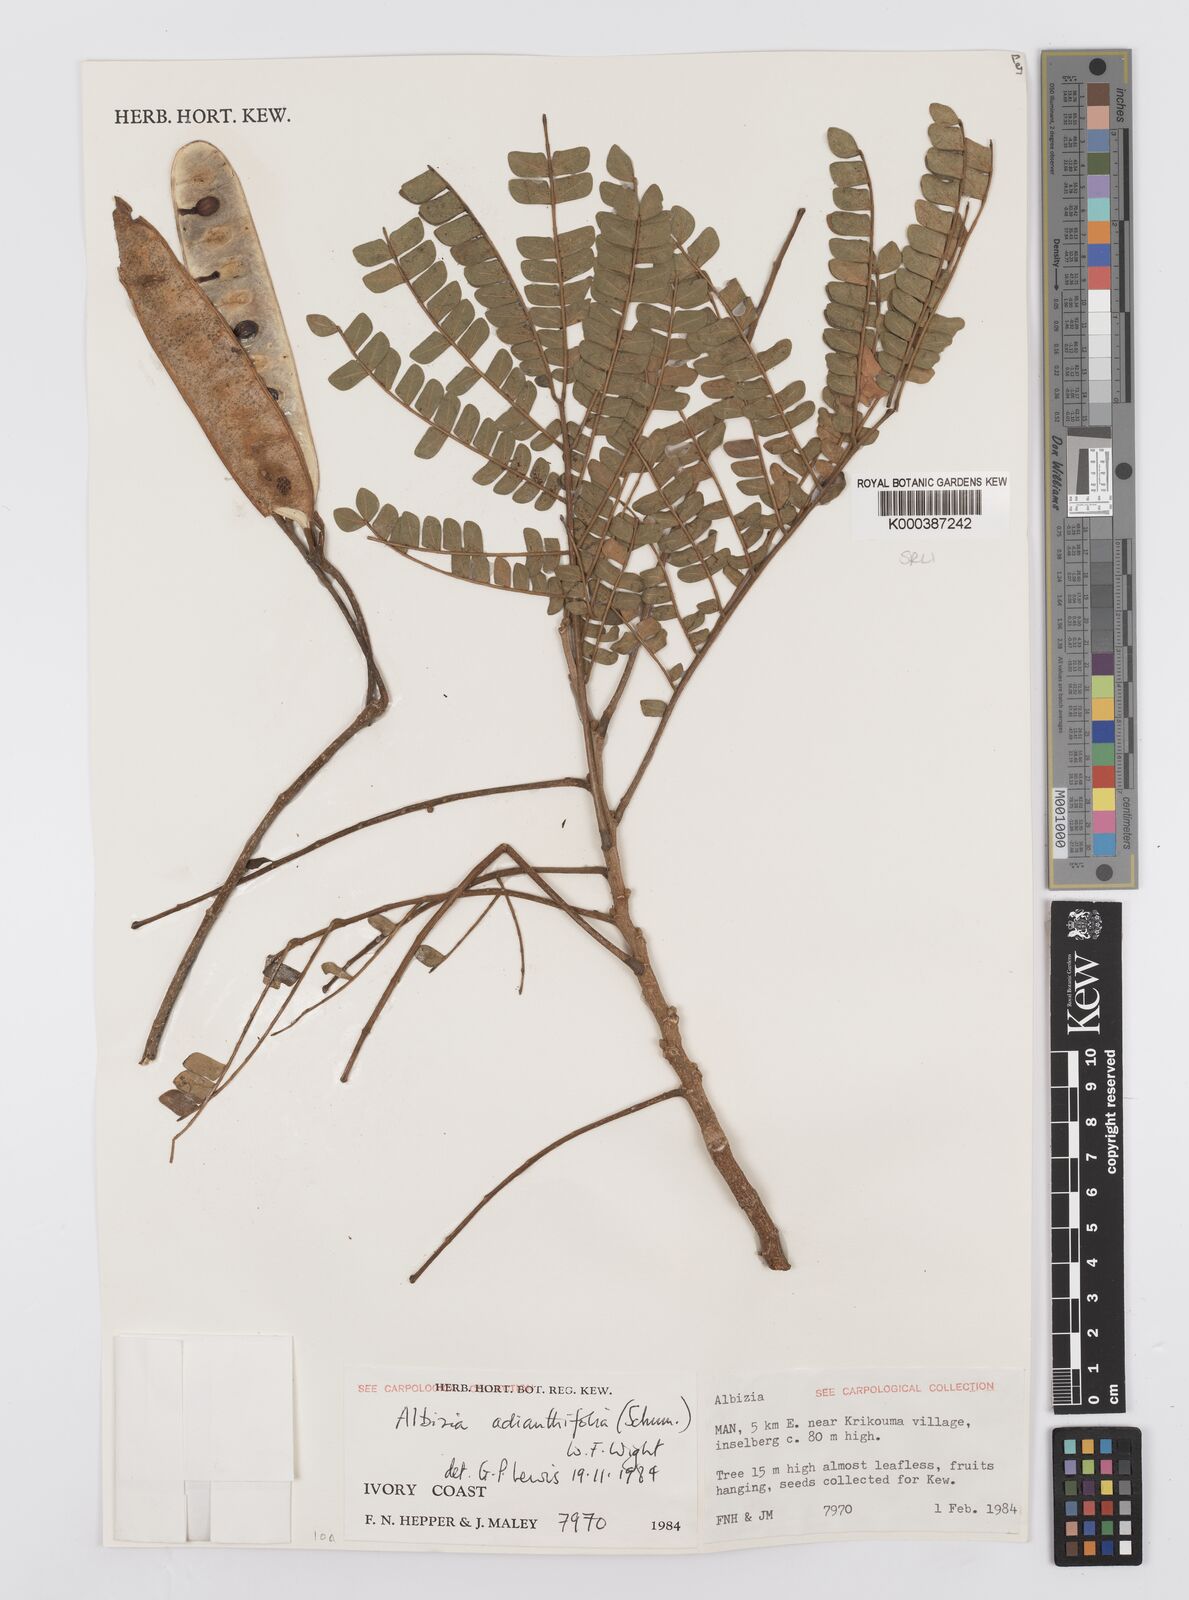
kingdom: Plantae
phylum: Tracheophyta
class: Magnoliopsida
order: Fabales
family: Fabaceae
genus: Albizia
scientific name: Albizia adianthifolia
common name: West african albizia
